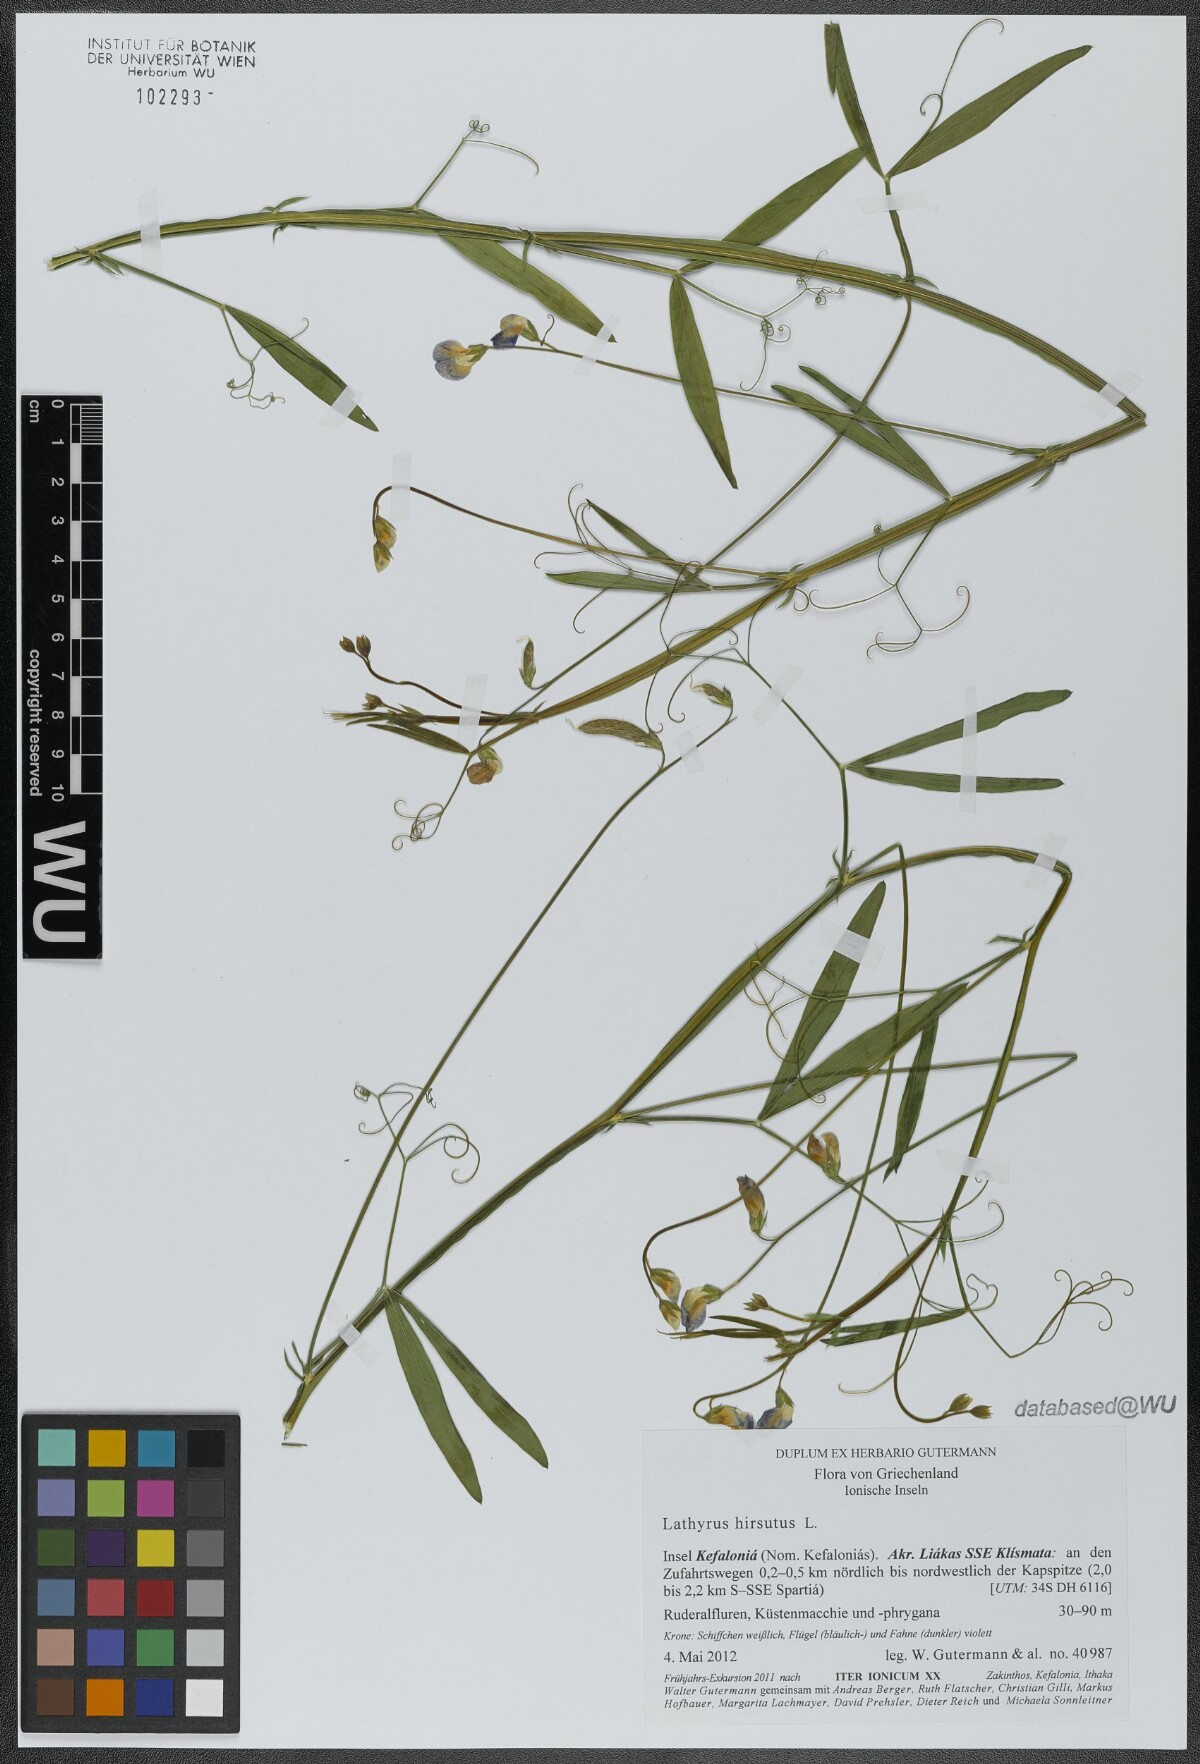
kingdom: Plantae
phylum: Tracheophyta
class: Magnoliopsida
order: Fabales
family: Fabaceae
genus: Lathyrus
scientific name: Lathyrus hirsutus
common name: Hairy vetchling
